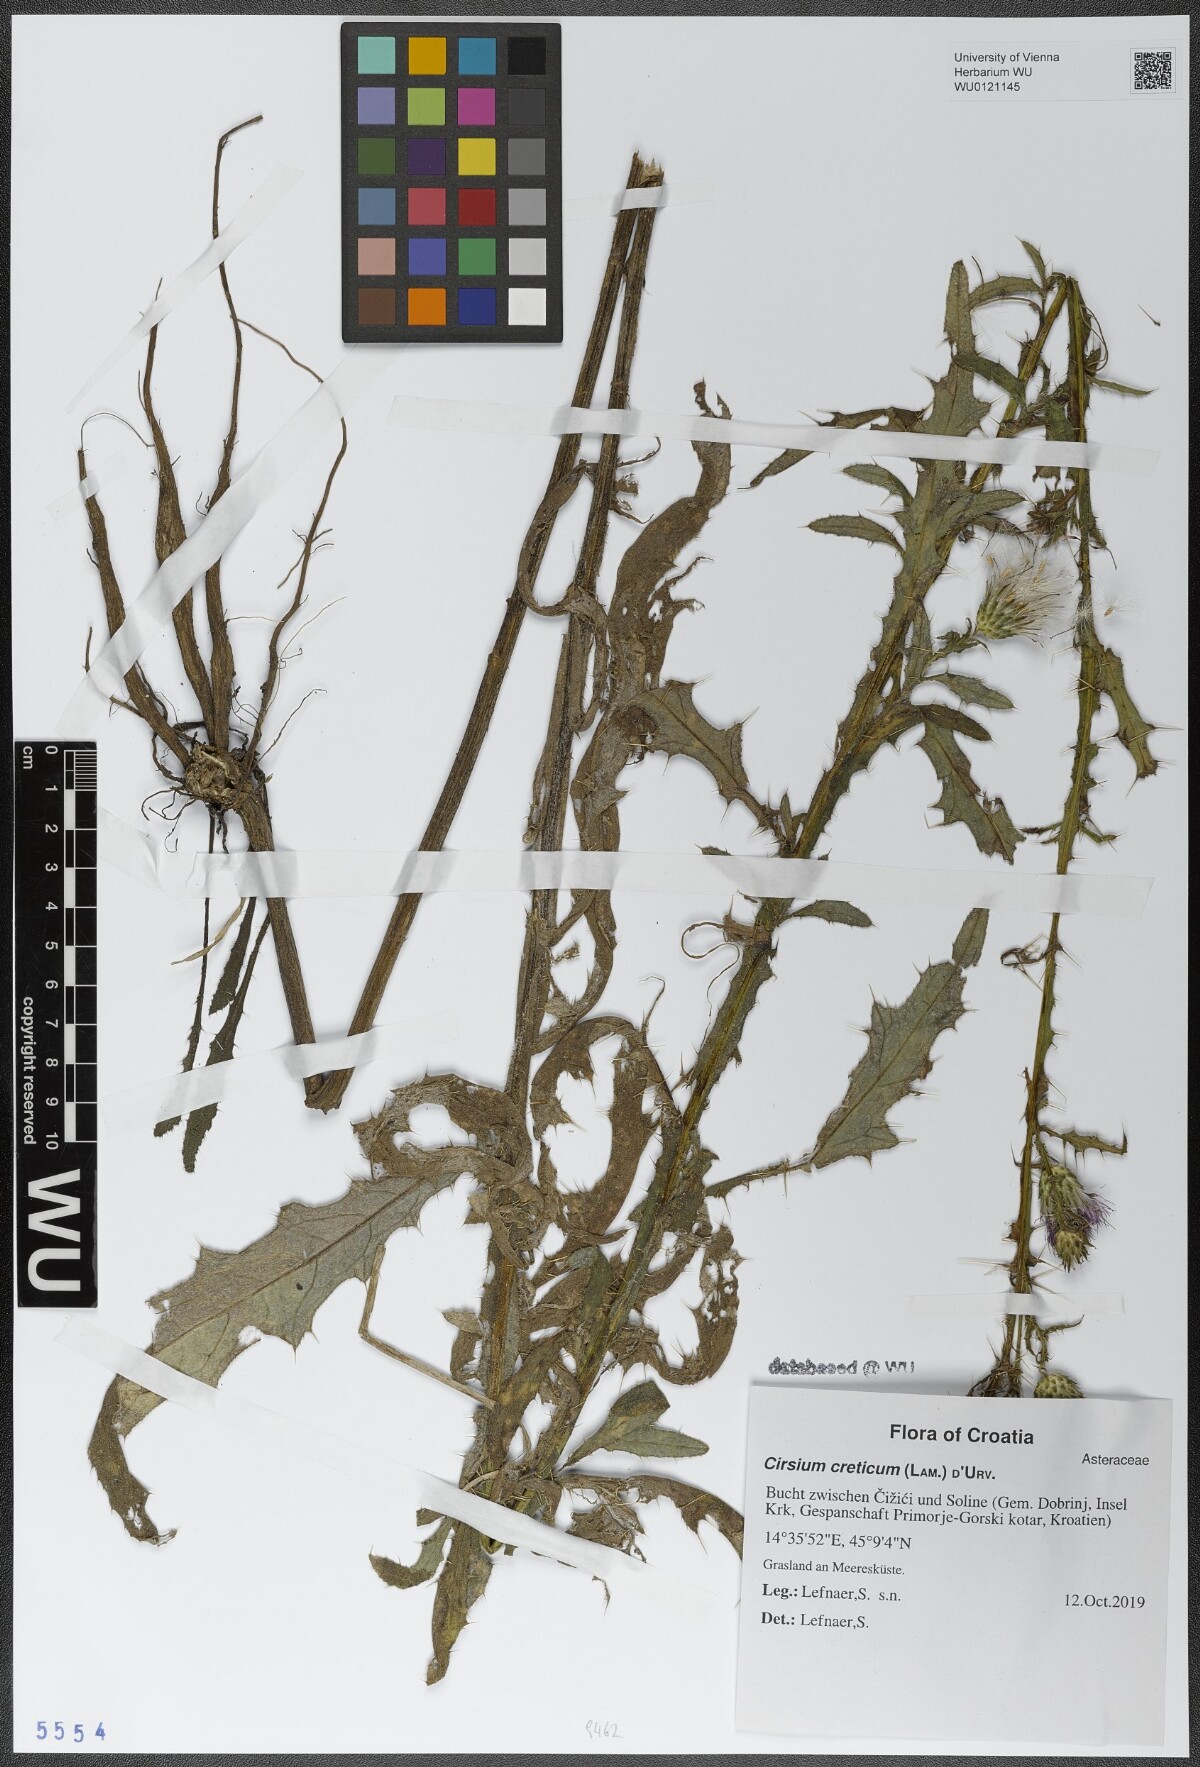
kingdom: Plantae
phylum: Tracheophyta
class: Magnoliopsida
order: Asterales
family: Asteraceae
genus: Cirsium
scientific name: Cirsium creticum
